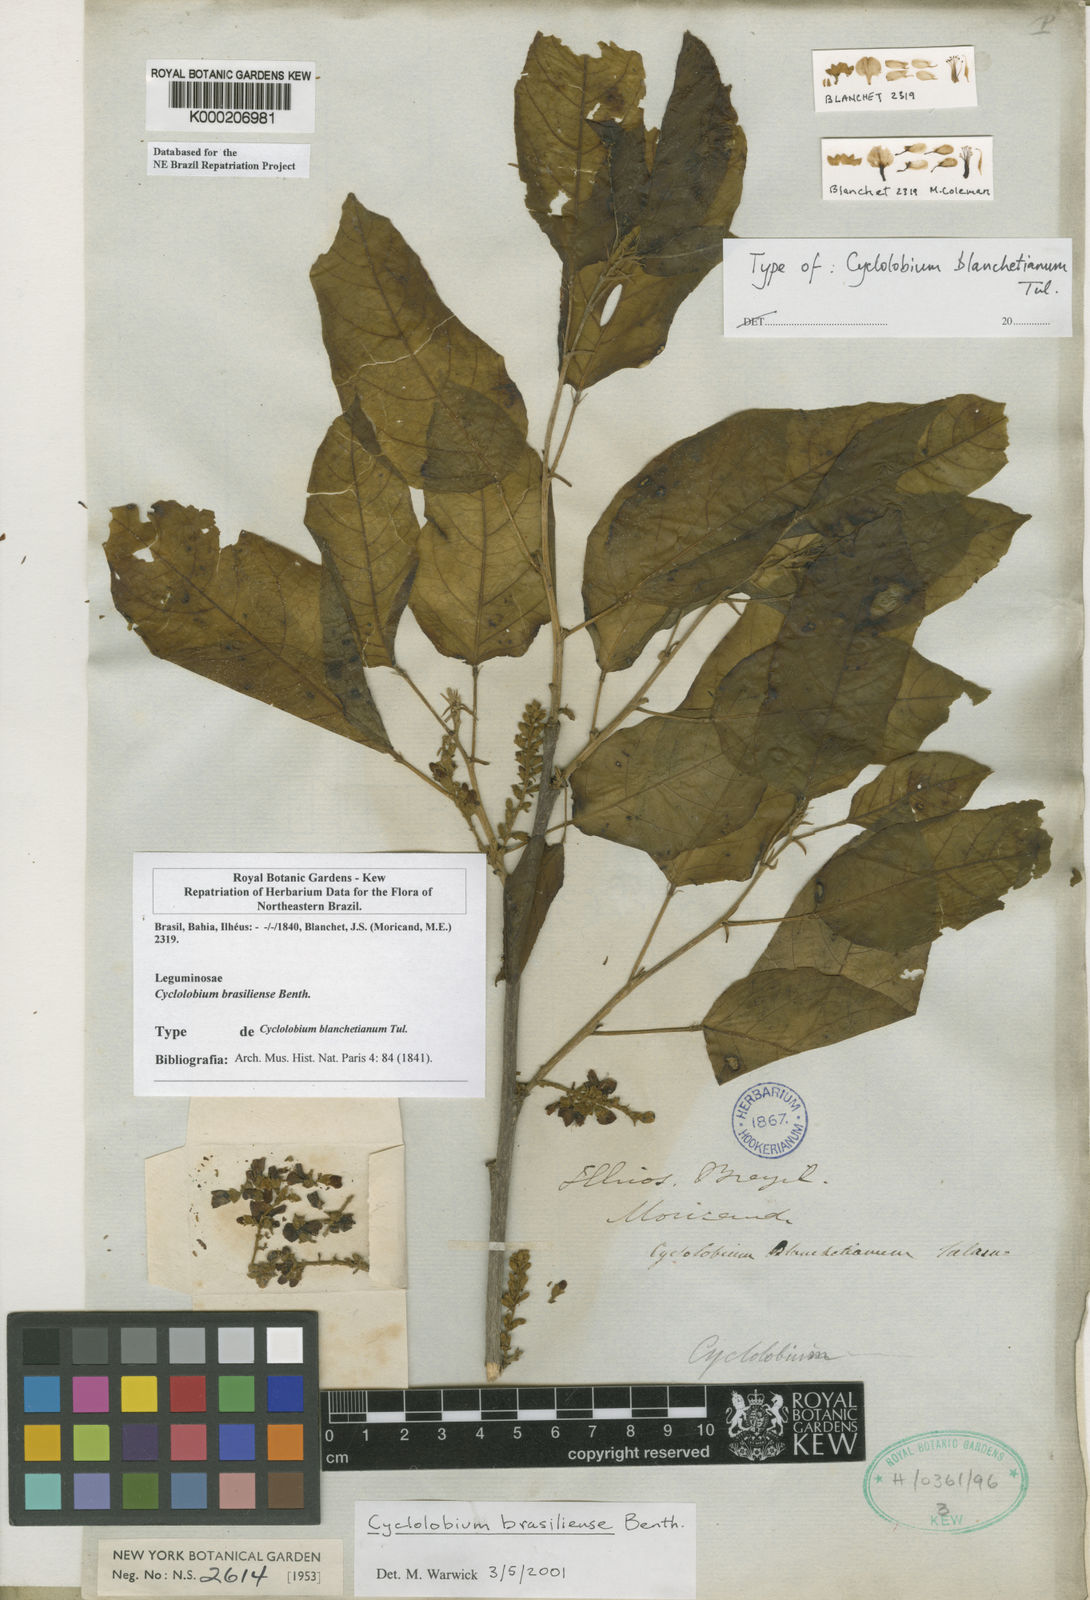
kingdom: Plantae
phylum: Tracheophyta
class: Magnoliopsida
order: Fabales
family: Fabaceae
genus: Cyclolobium
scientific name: Cyclolobium brasiliense
